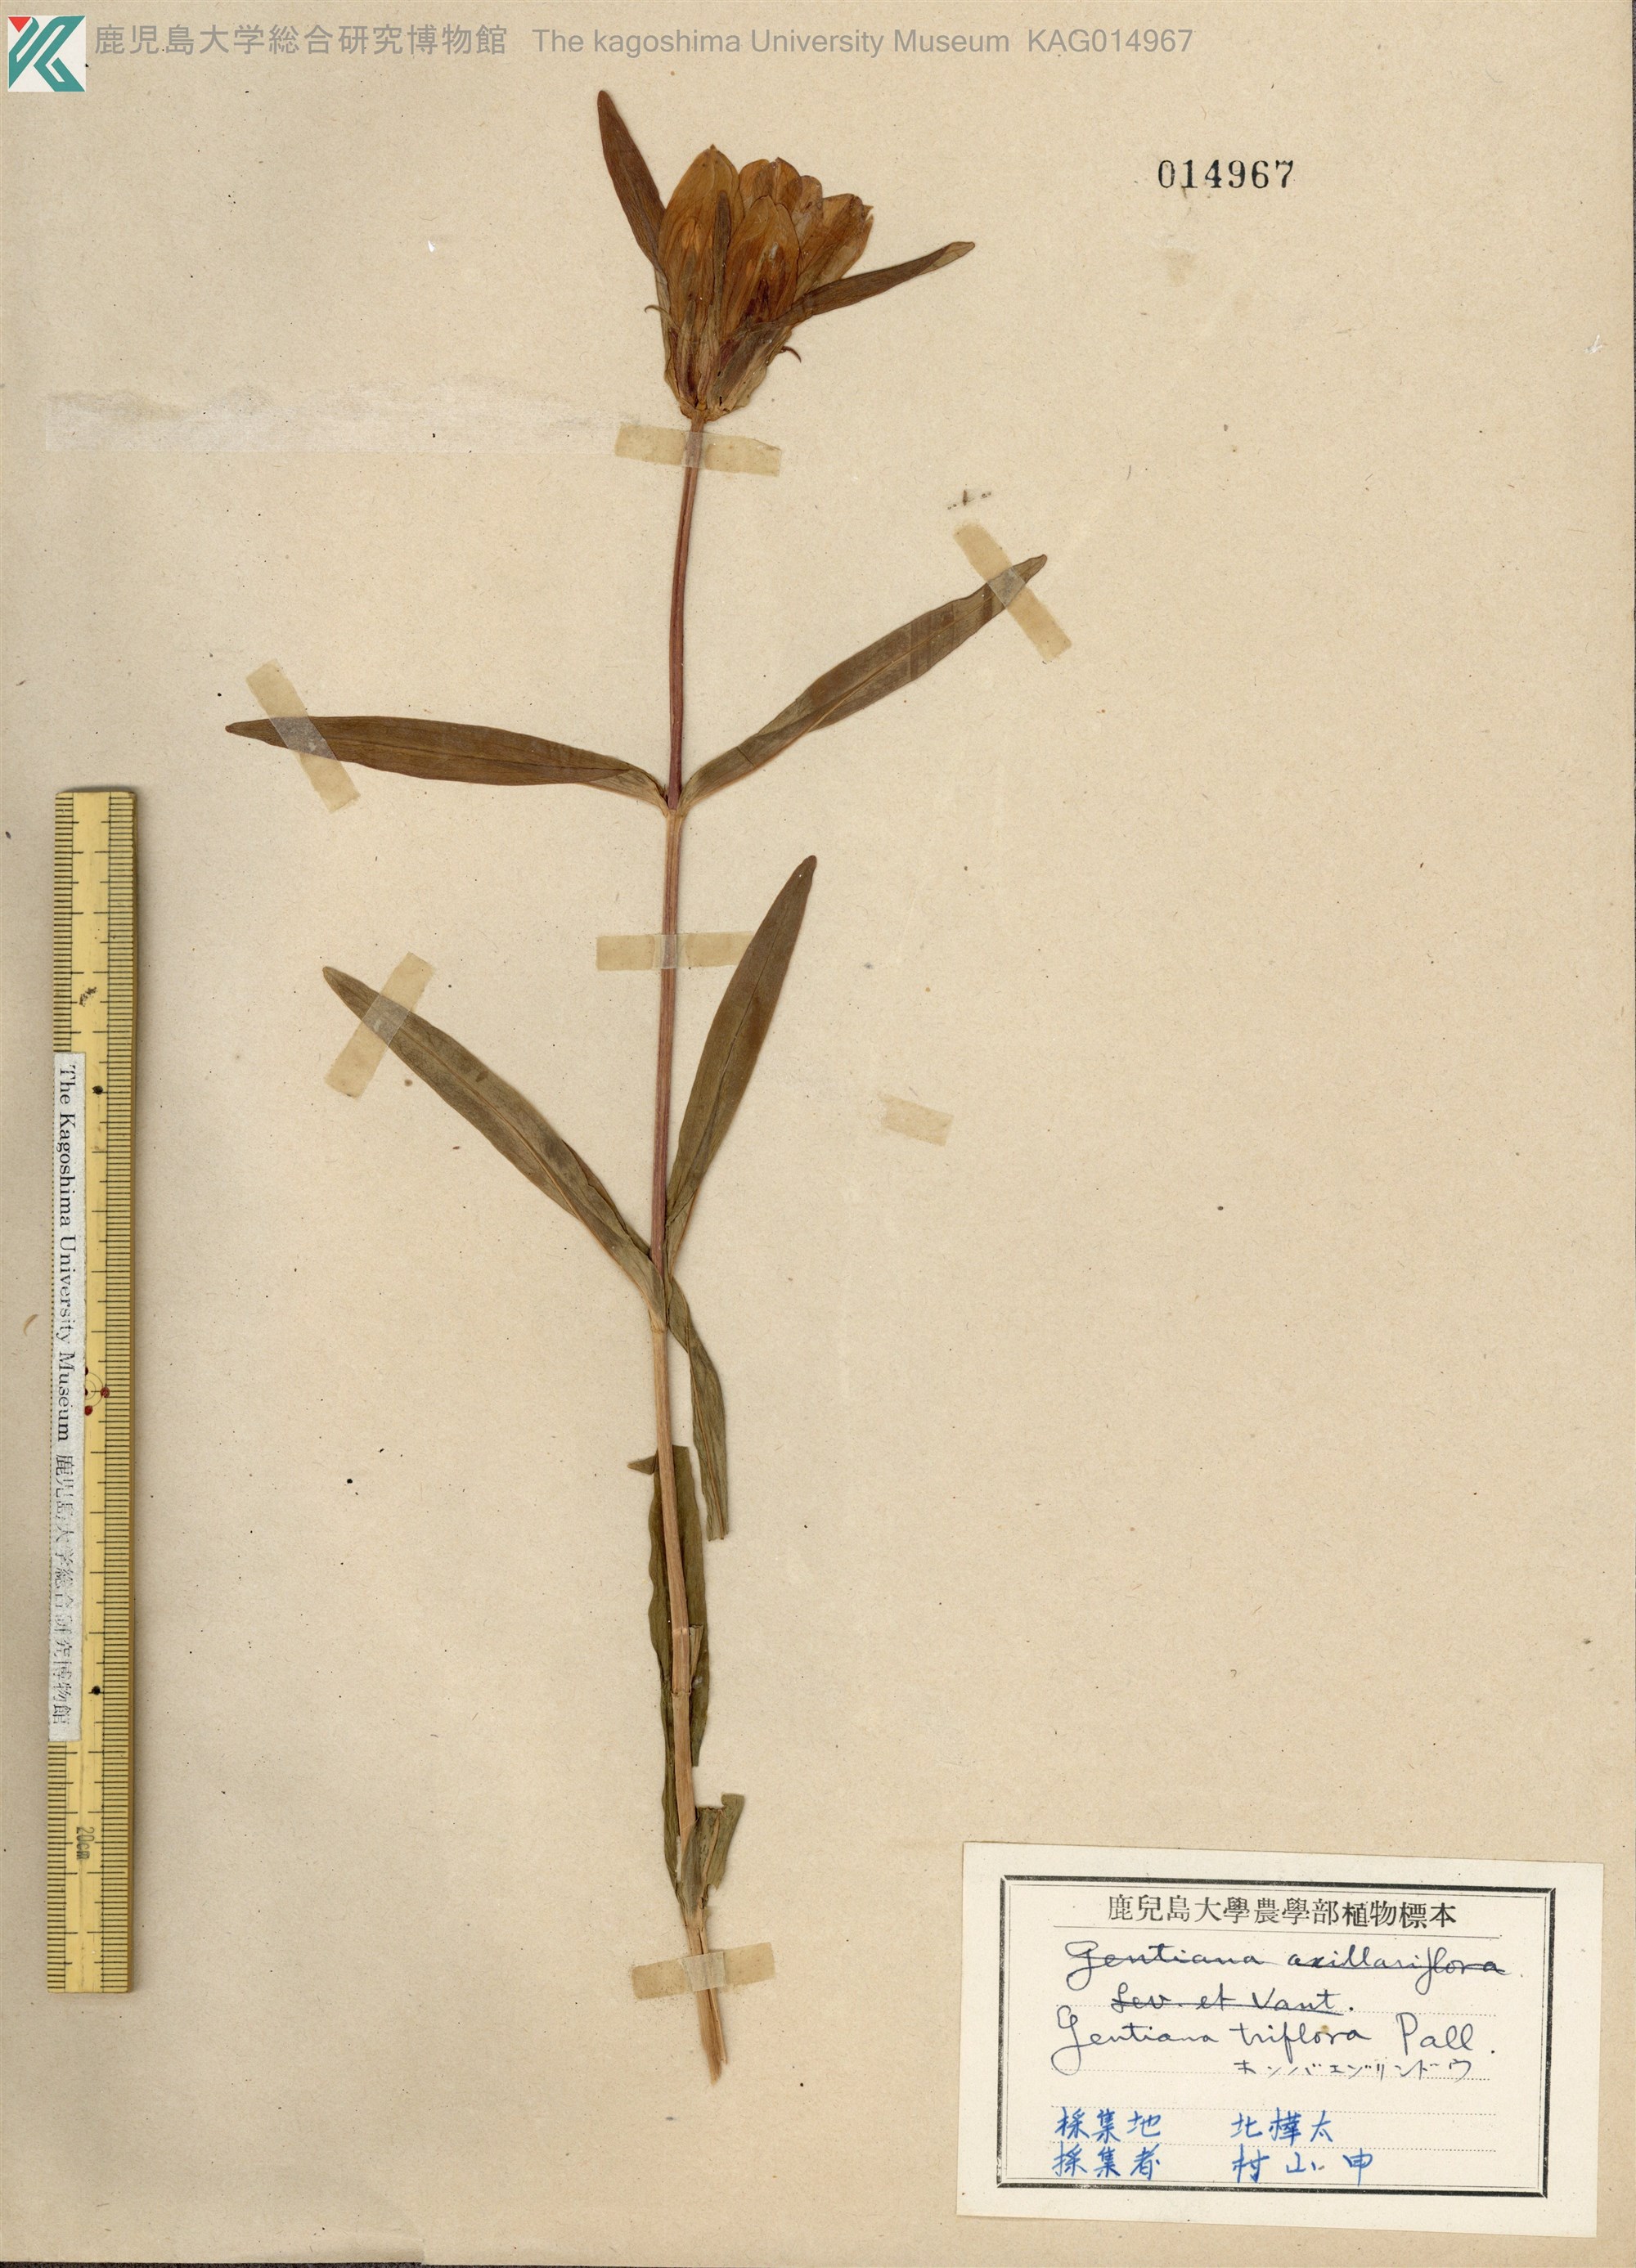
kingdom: Plantae
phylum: Tracheophyta
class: Magnoliopsida
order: Gentianales
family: Gentianaceae
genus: Gentiana
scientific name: Gentiana triflora
